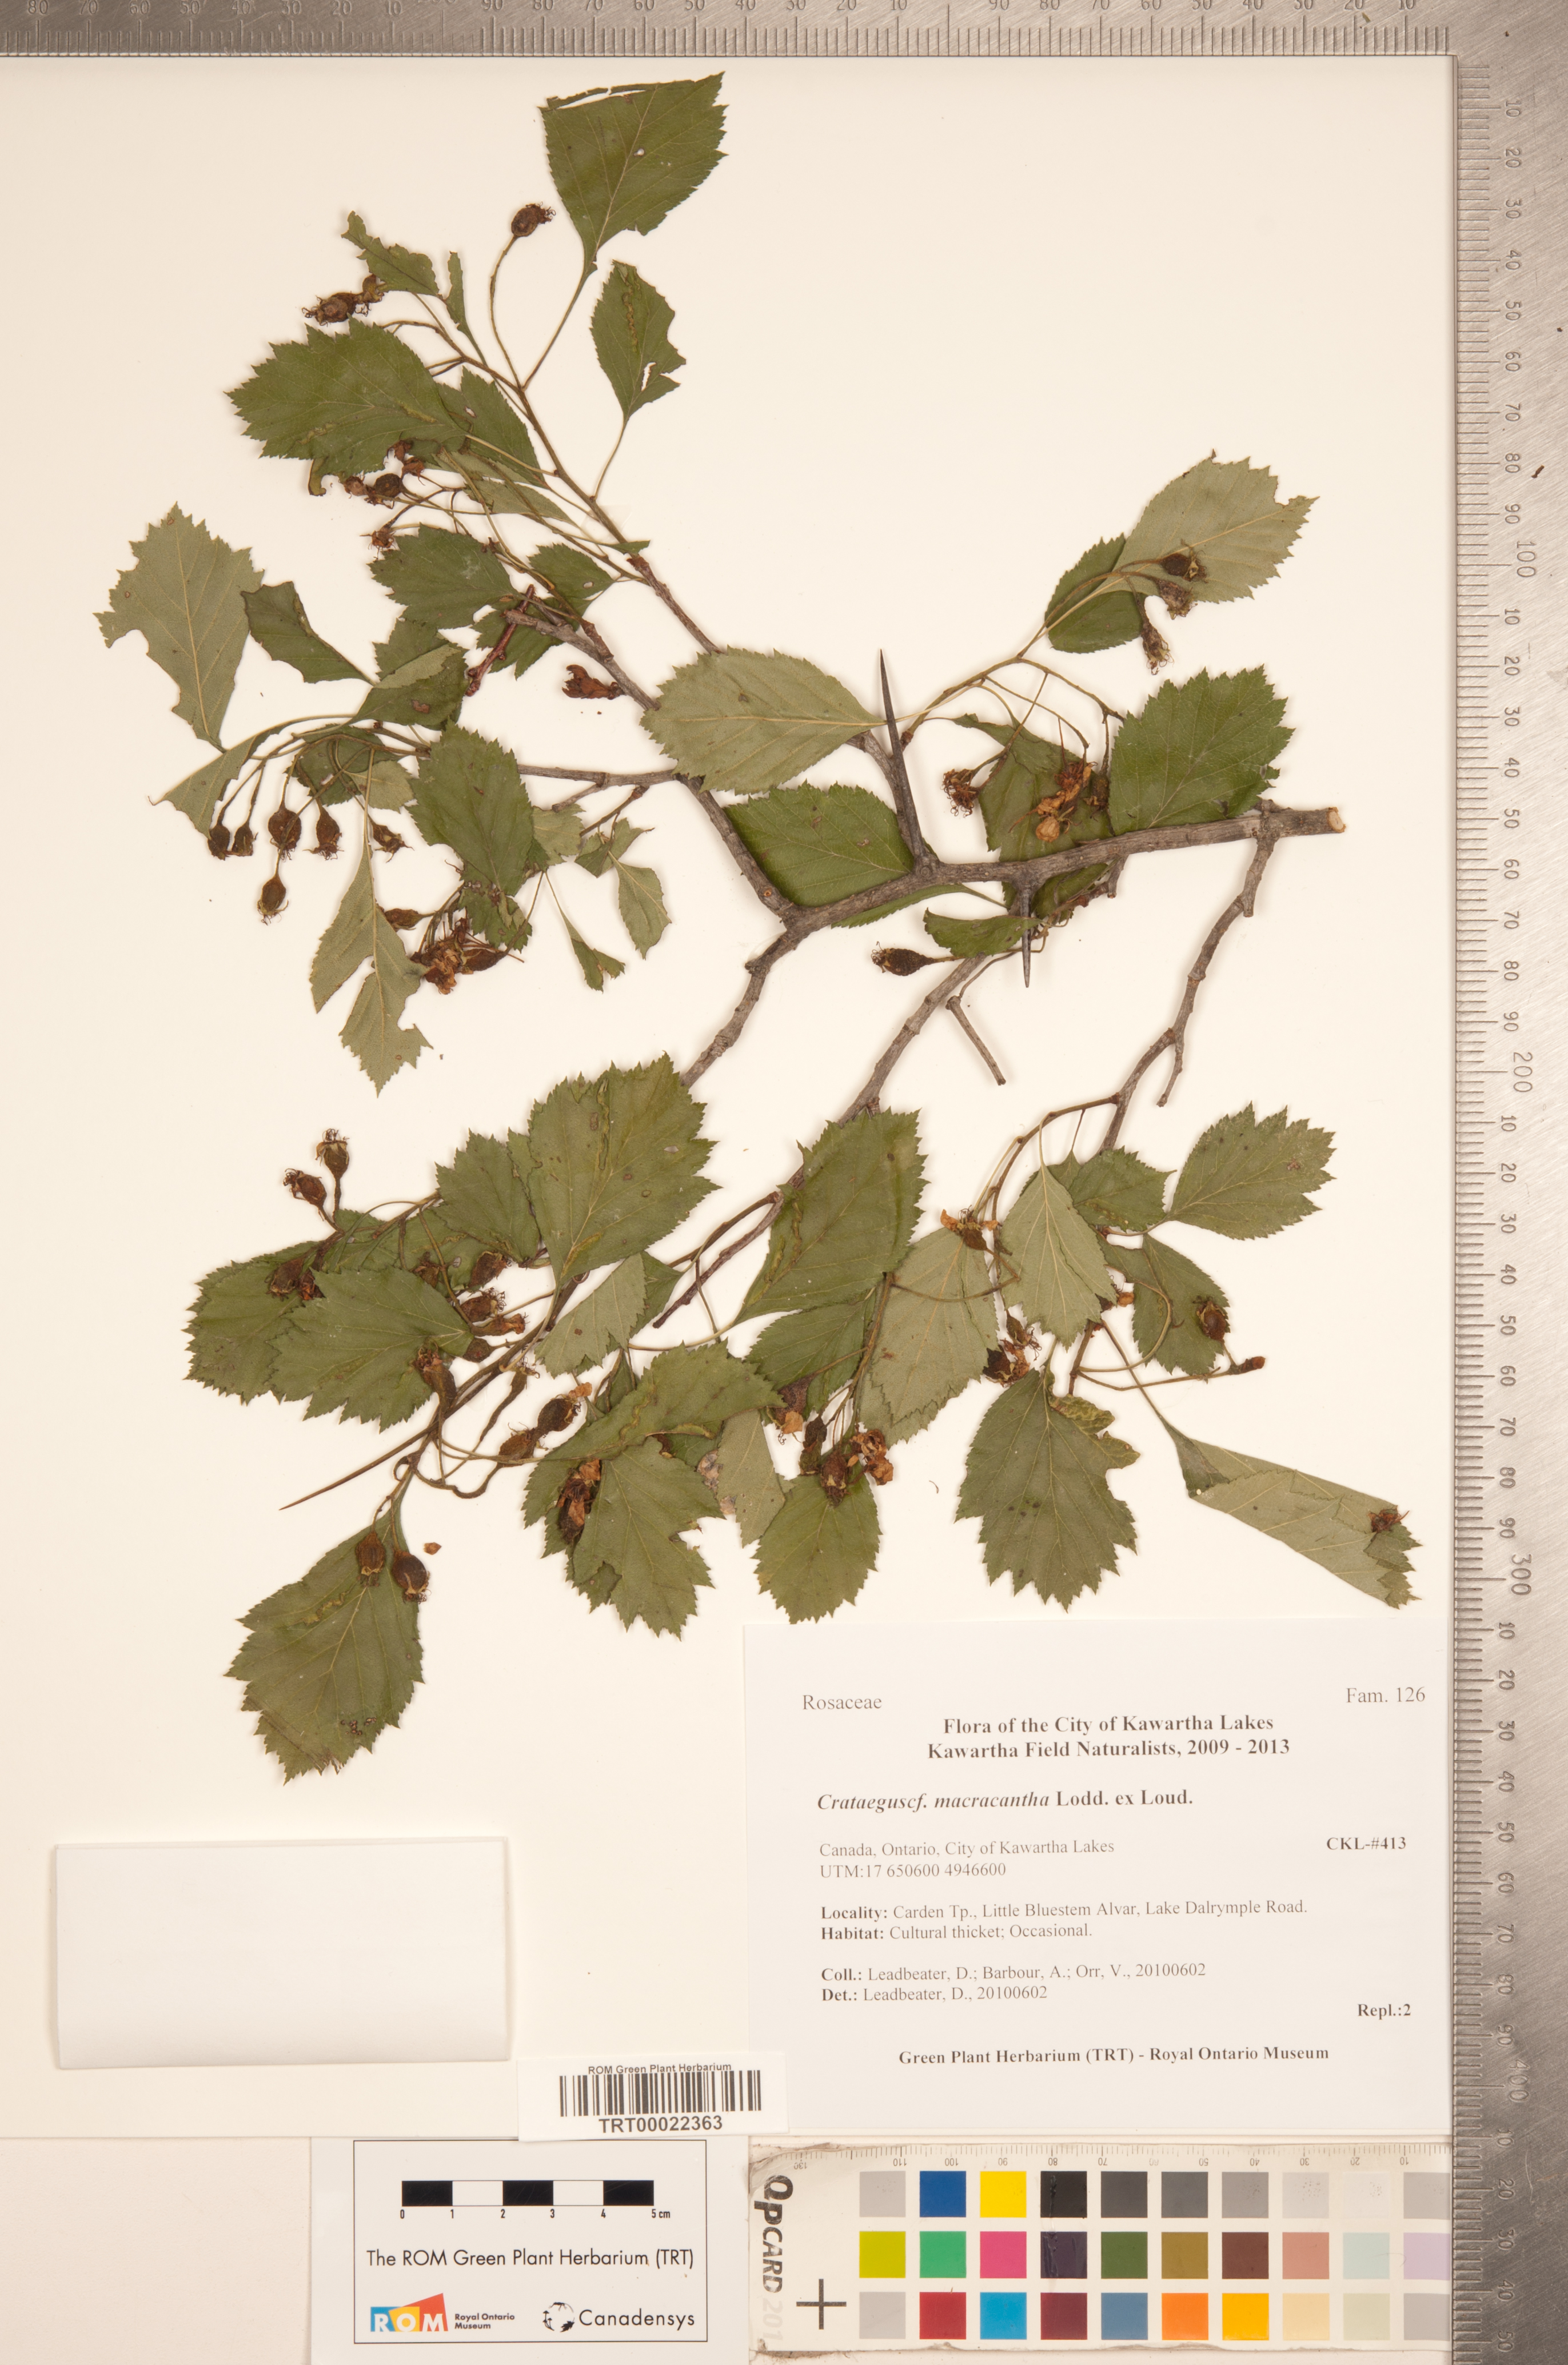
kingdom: Plantae
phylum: Tracheophyta
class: Magnoliopsida
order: Rosales
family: Rosaceae
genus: Crataegus
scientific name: Crataegus macracantha
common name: Large-thorn hawthorn
